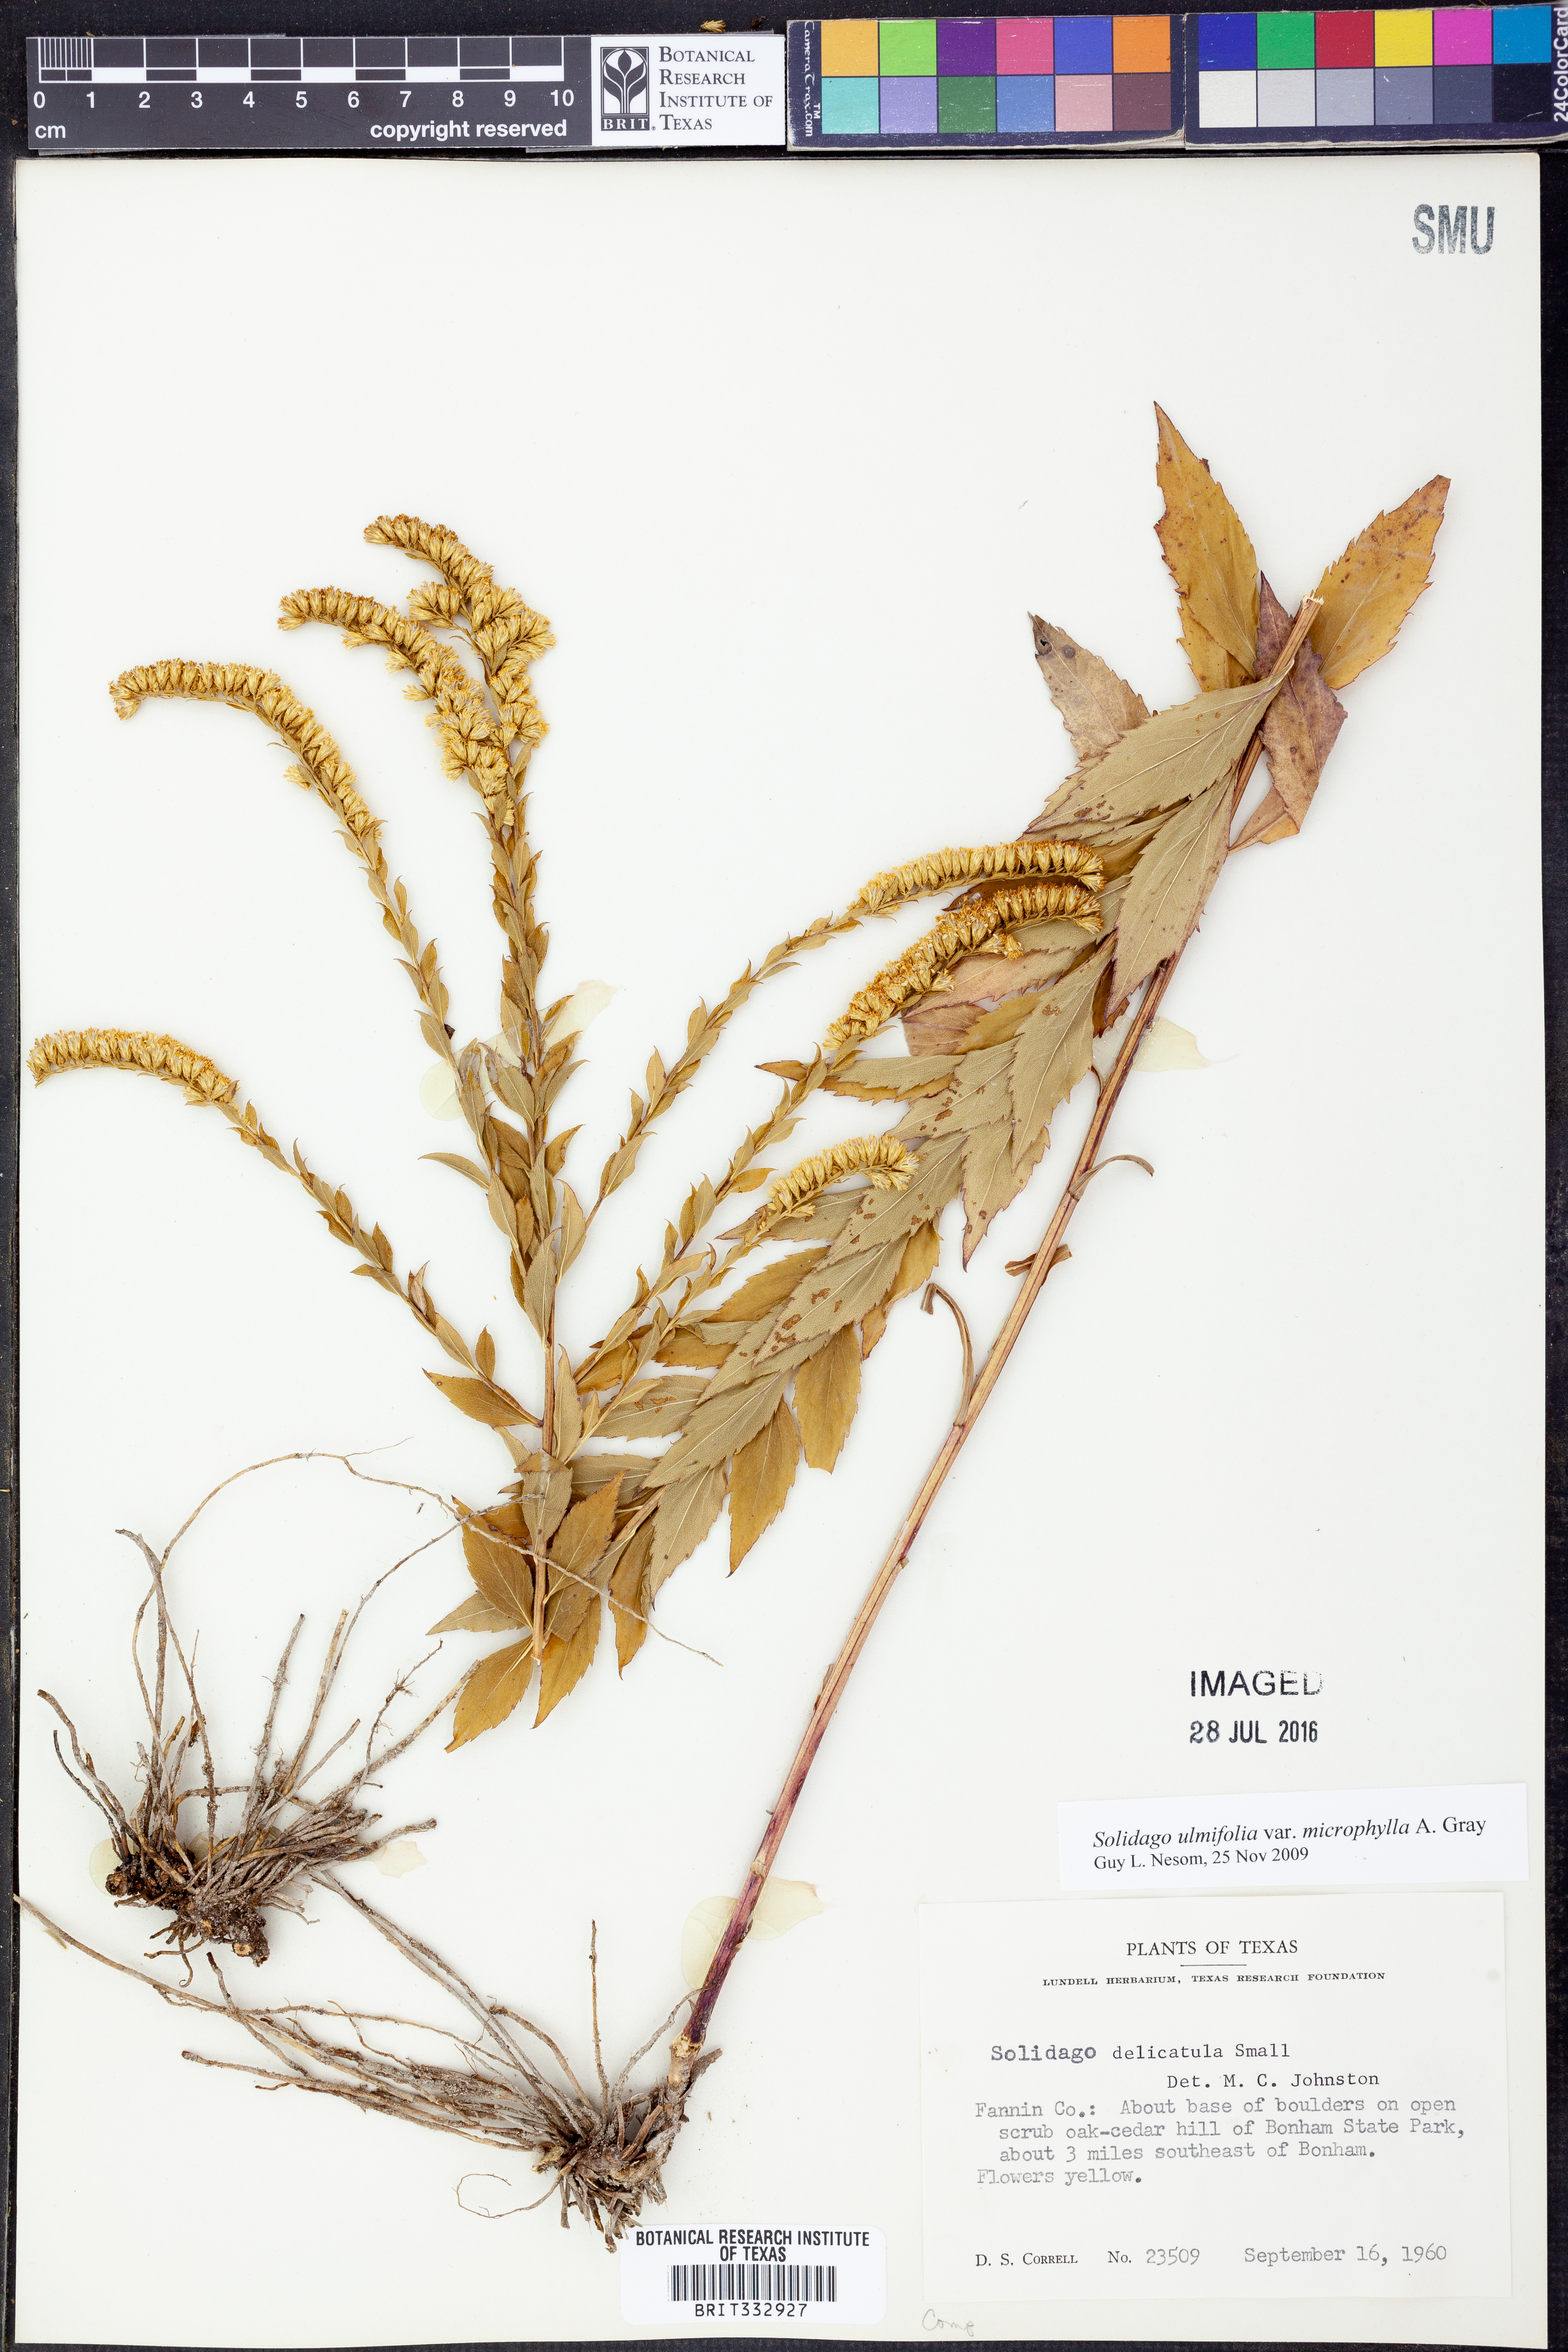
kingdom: Plantae
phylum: Tracheophyta
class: Magnoliopsida
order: Asterales
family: Asteraceae
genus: Solidago
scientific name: Solidago delicatula
